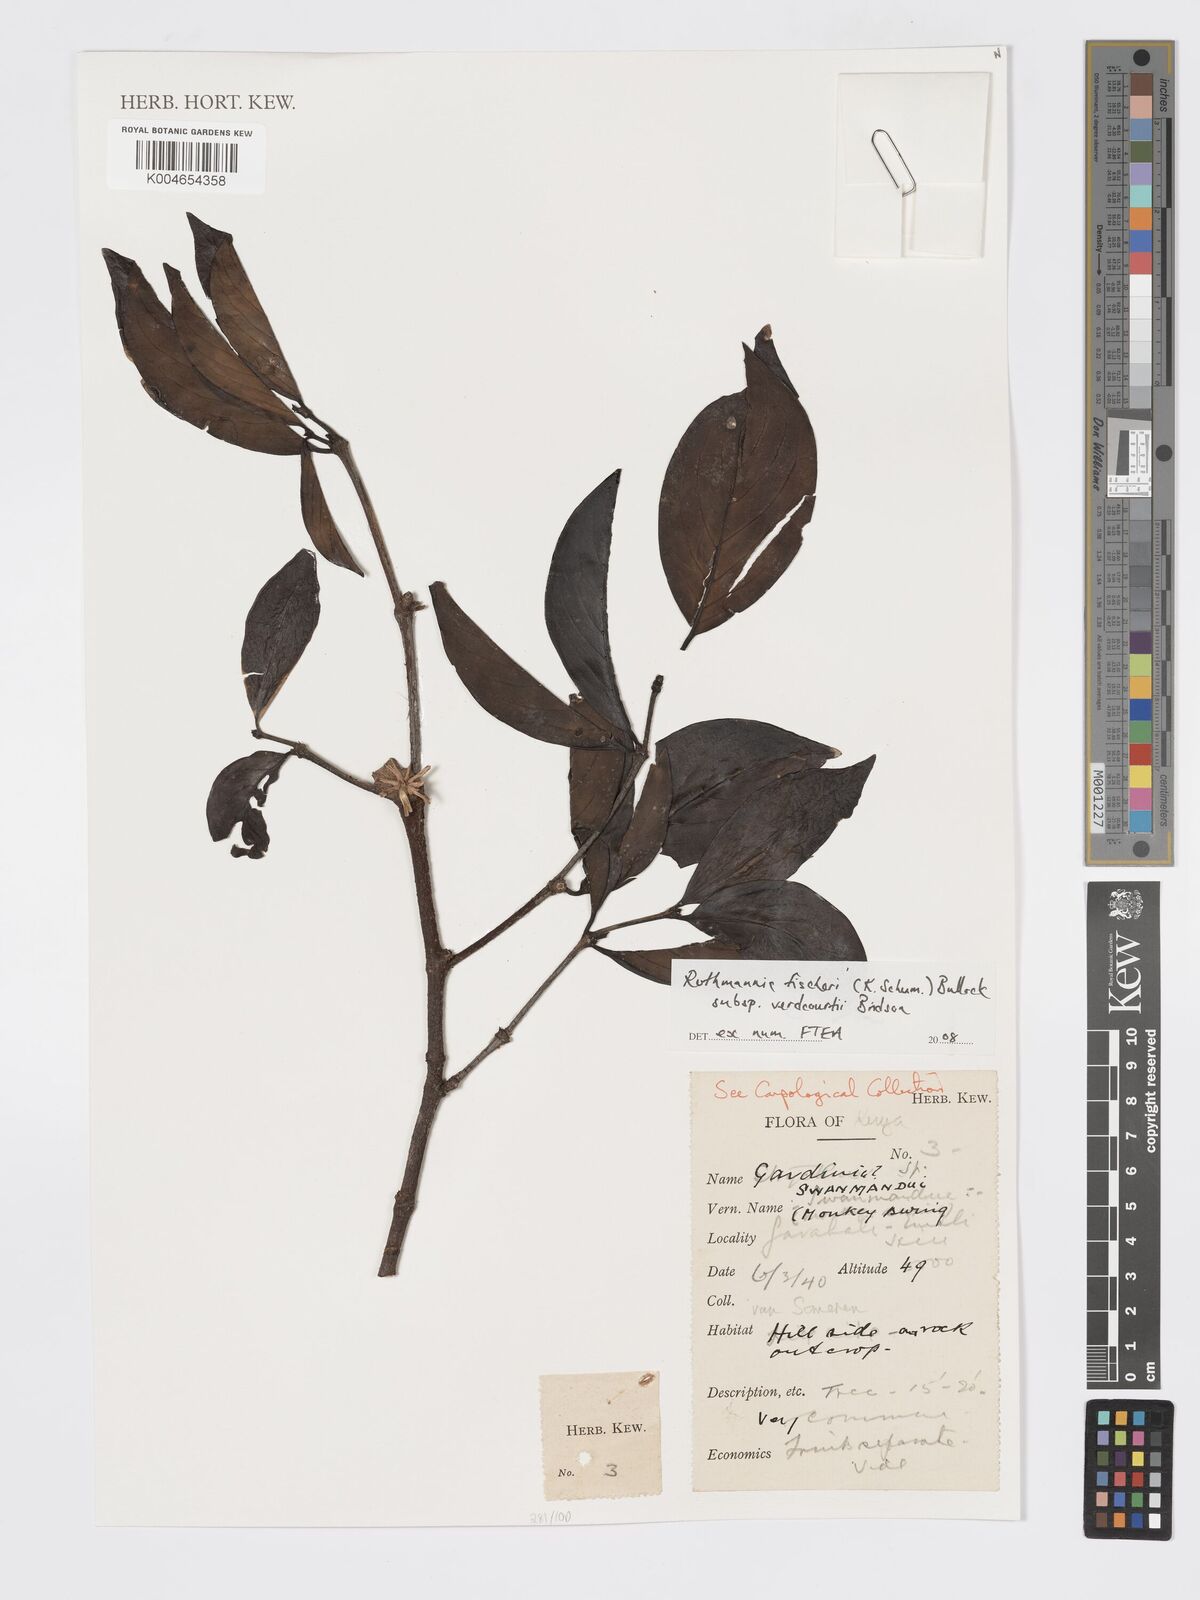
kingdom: Plantae
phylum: Tracheophyta
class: Magnoliopsida
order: Gentianales
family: Rubiaceae
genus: Rothmannia
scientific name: Rothmannia fischeri
